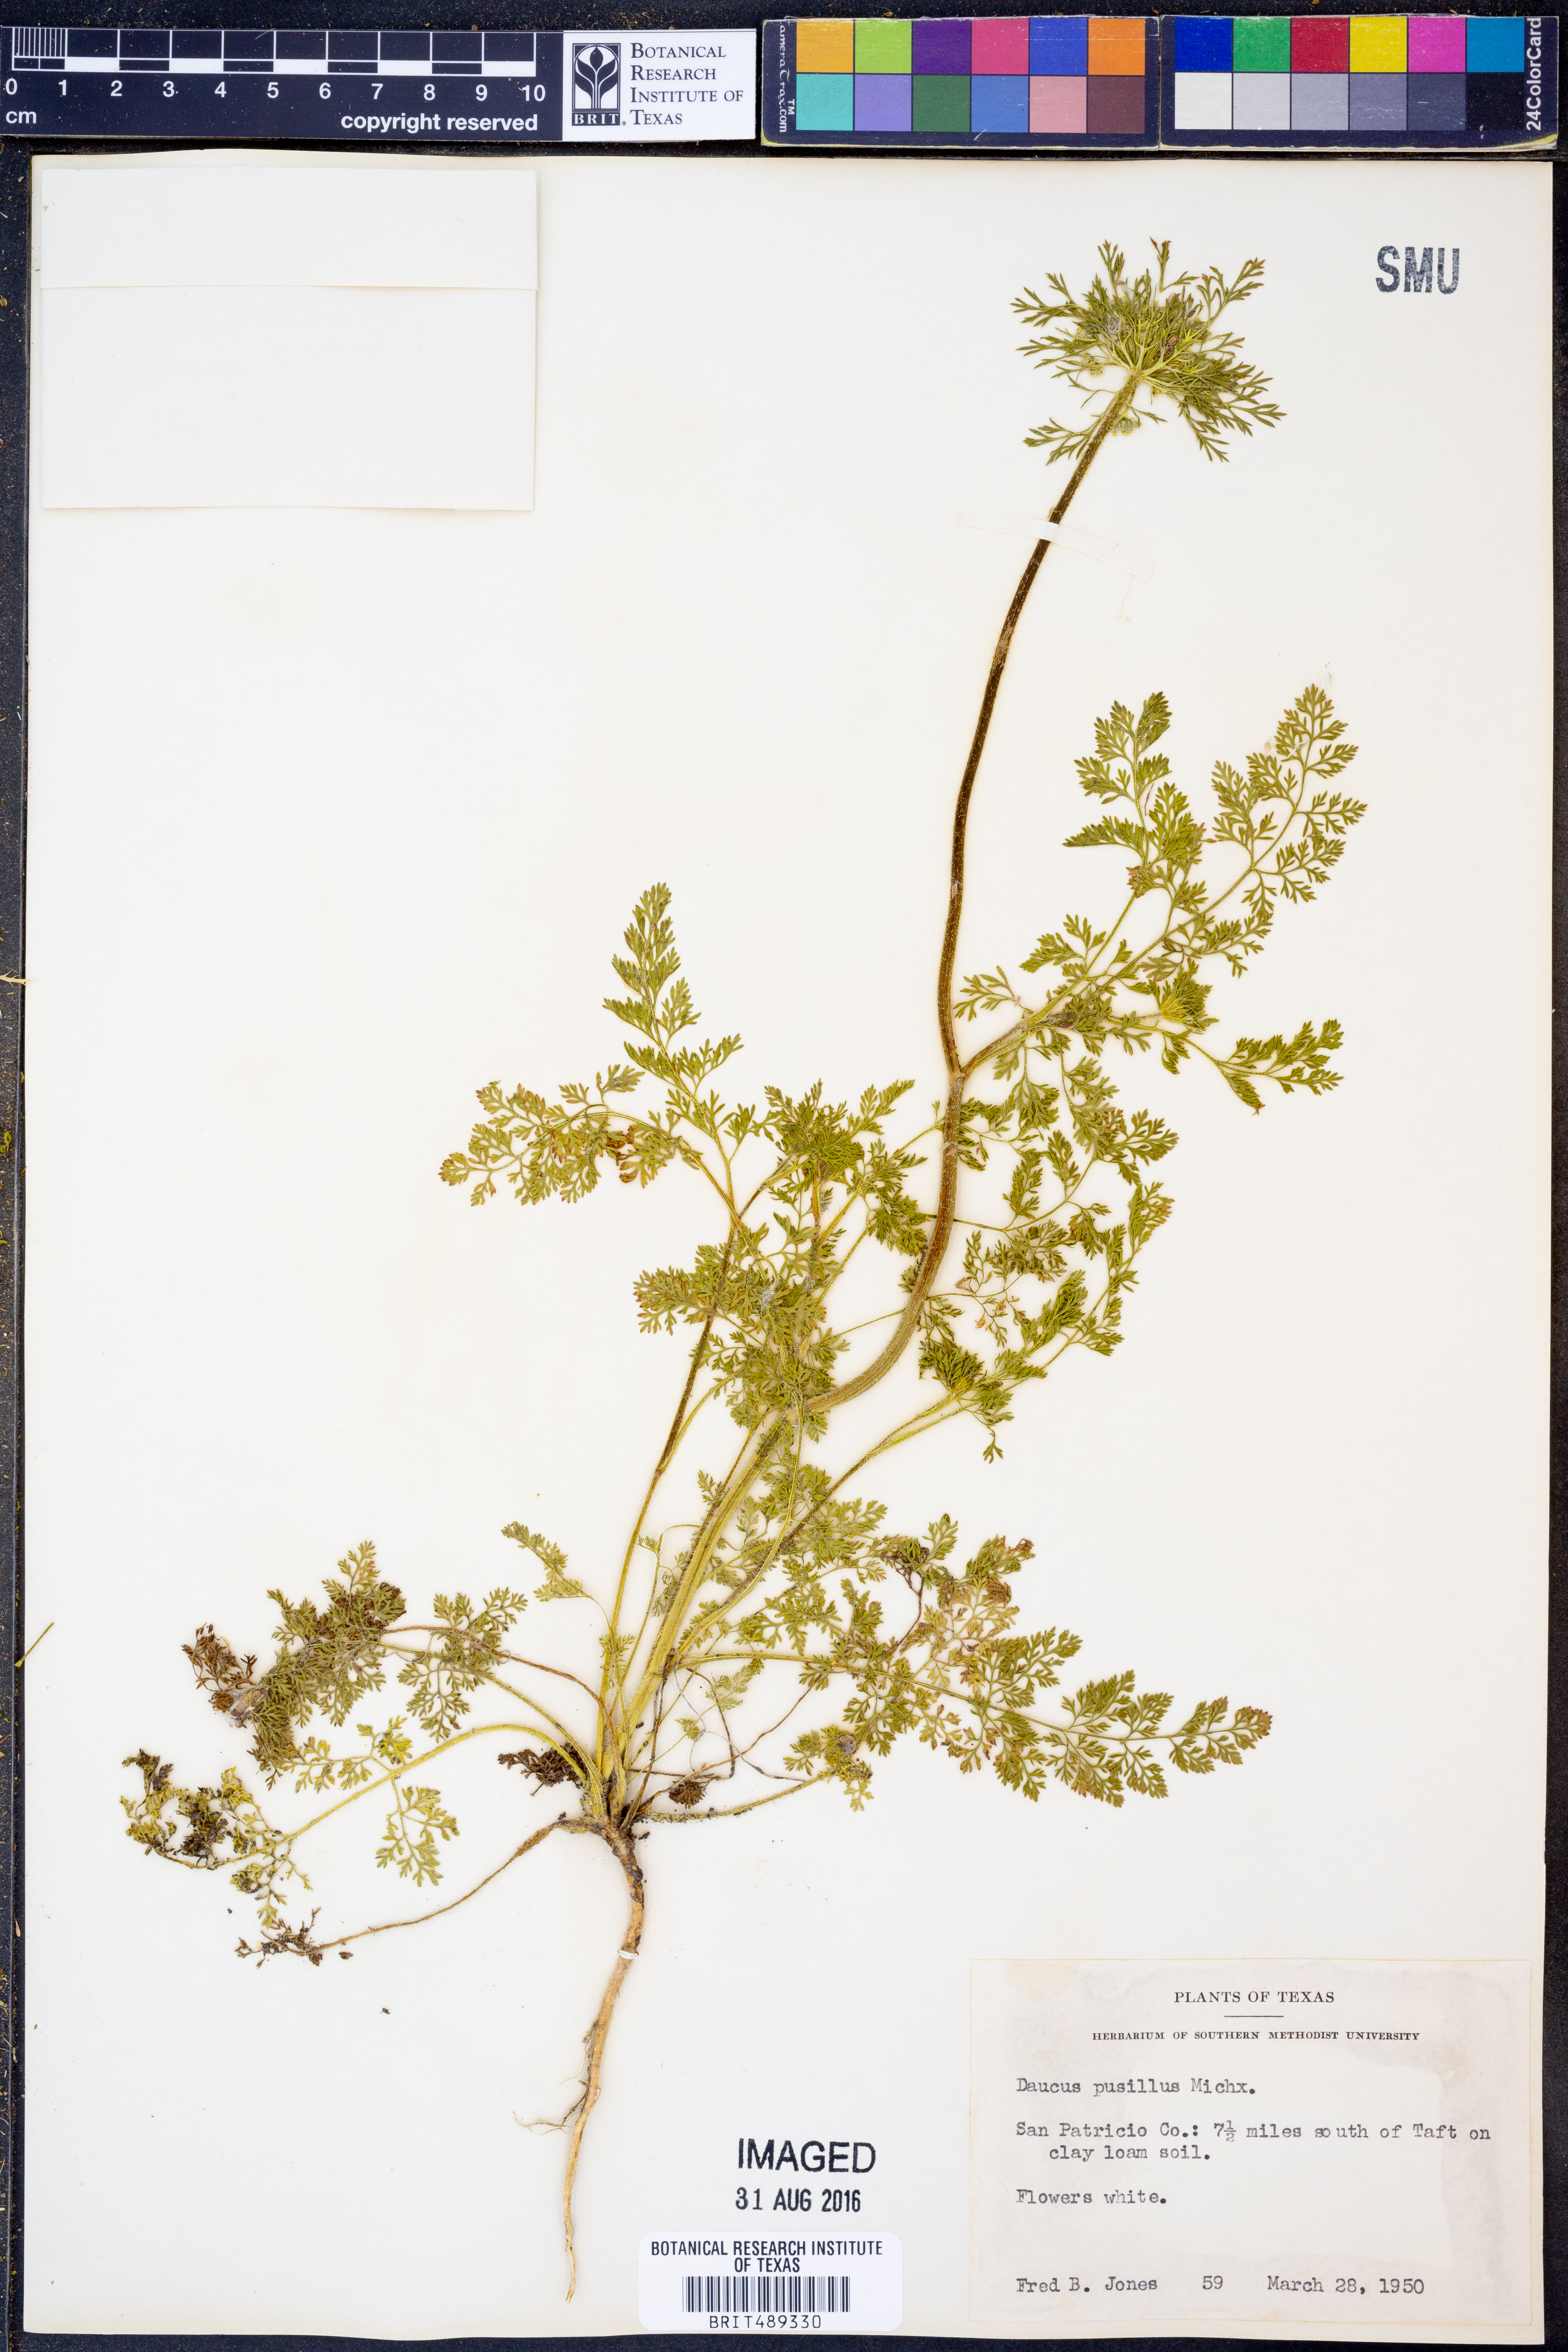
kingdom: Plantae
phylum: Tracheophyta
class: Magnoliopsida
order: Apiales
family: Apiaceae
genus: Daucus
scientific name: Daucus pusillus
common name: Southwest wild carrot
